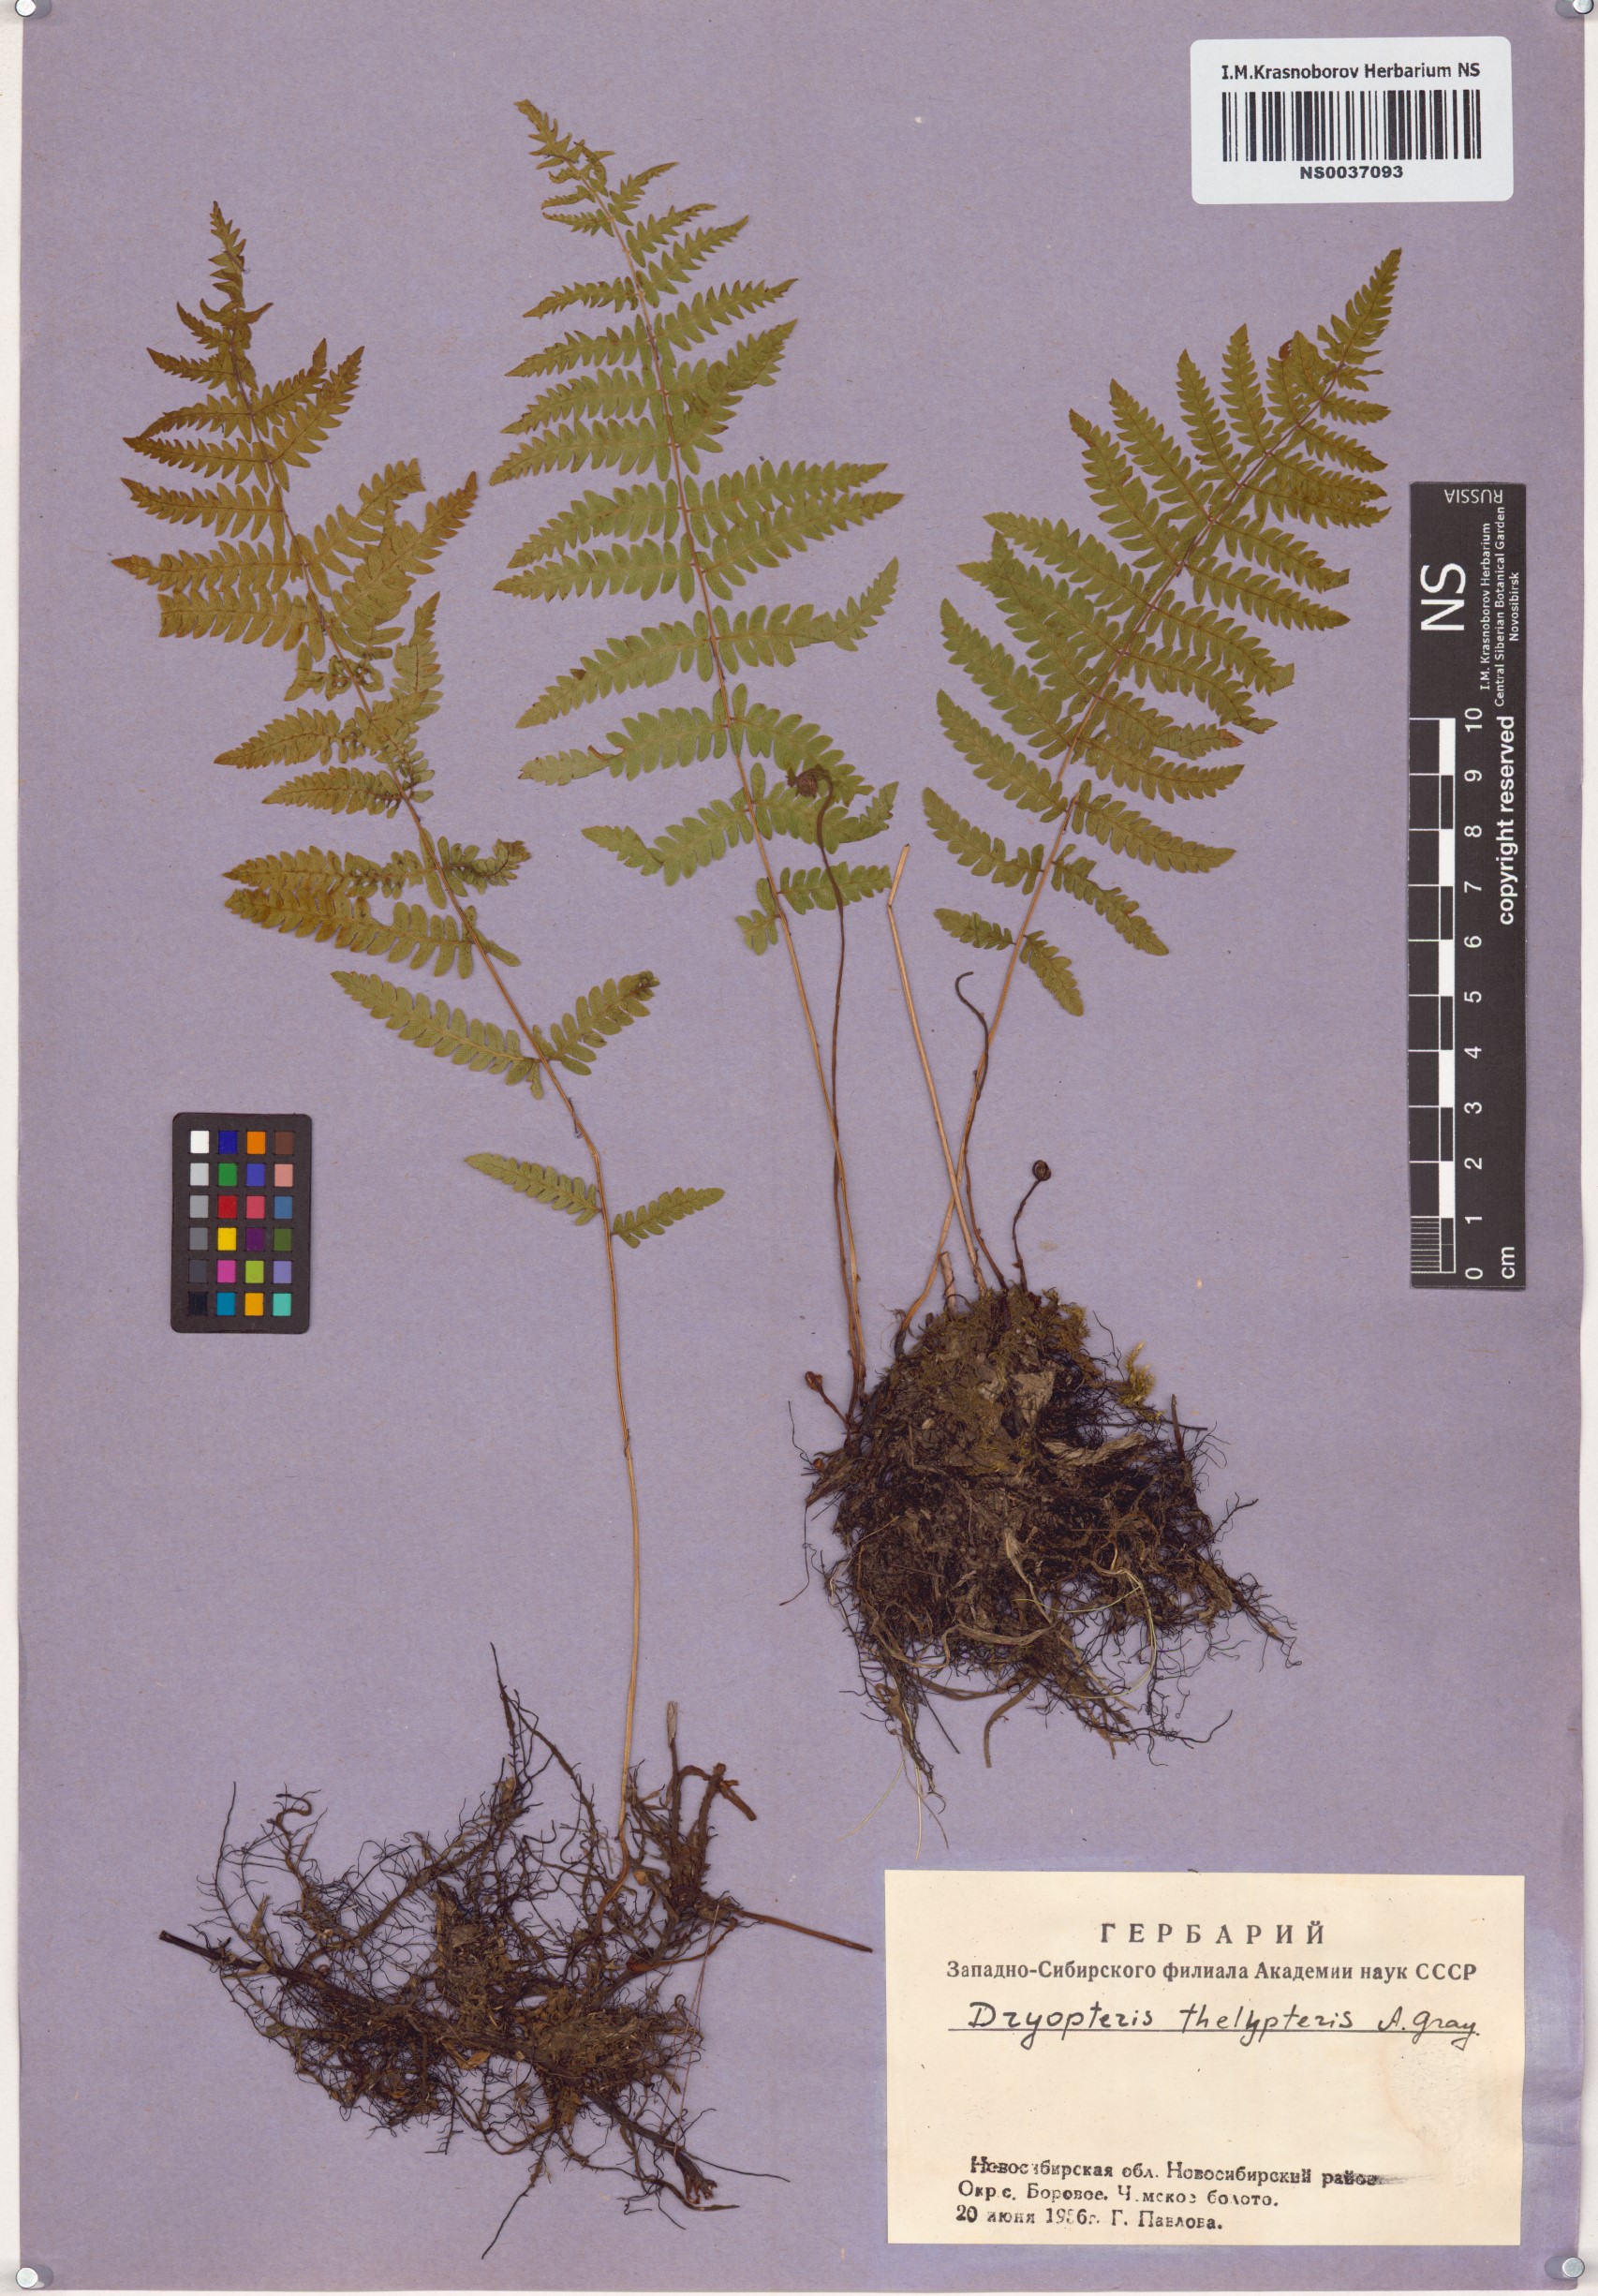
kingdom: Plantae
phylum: Tracheophyta
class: Polypodiopsida
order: Polypodiales
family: Thelypteridaceae
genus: Thelypteris
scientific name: Thelypteris palustris
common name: Marsh fern
